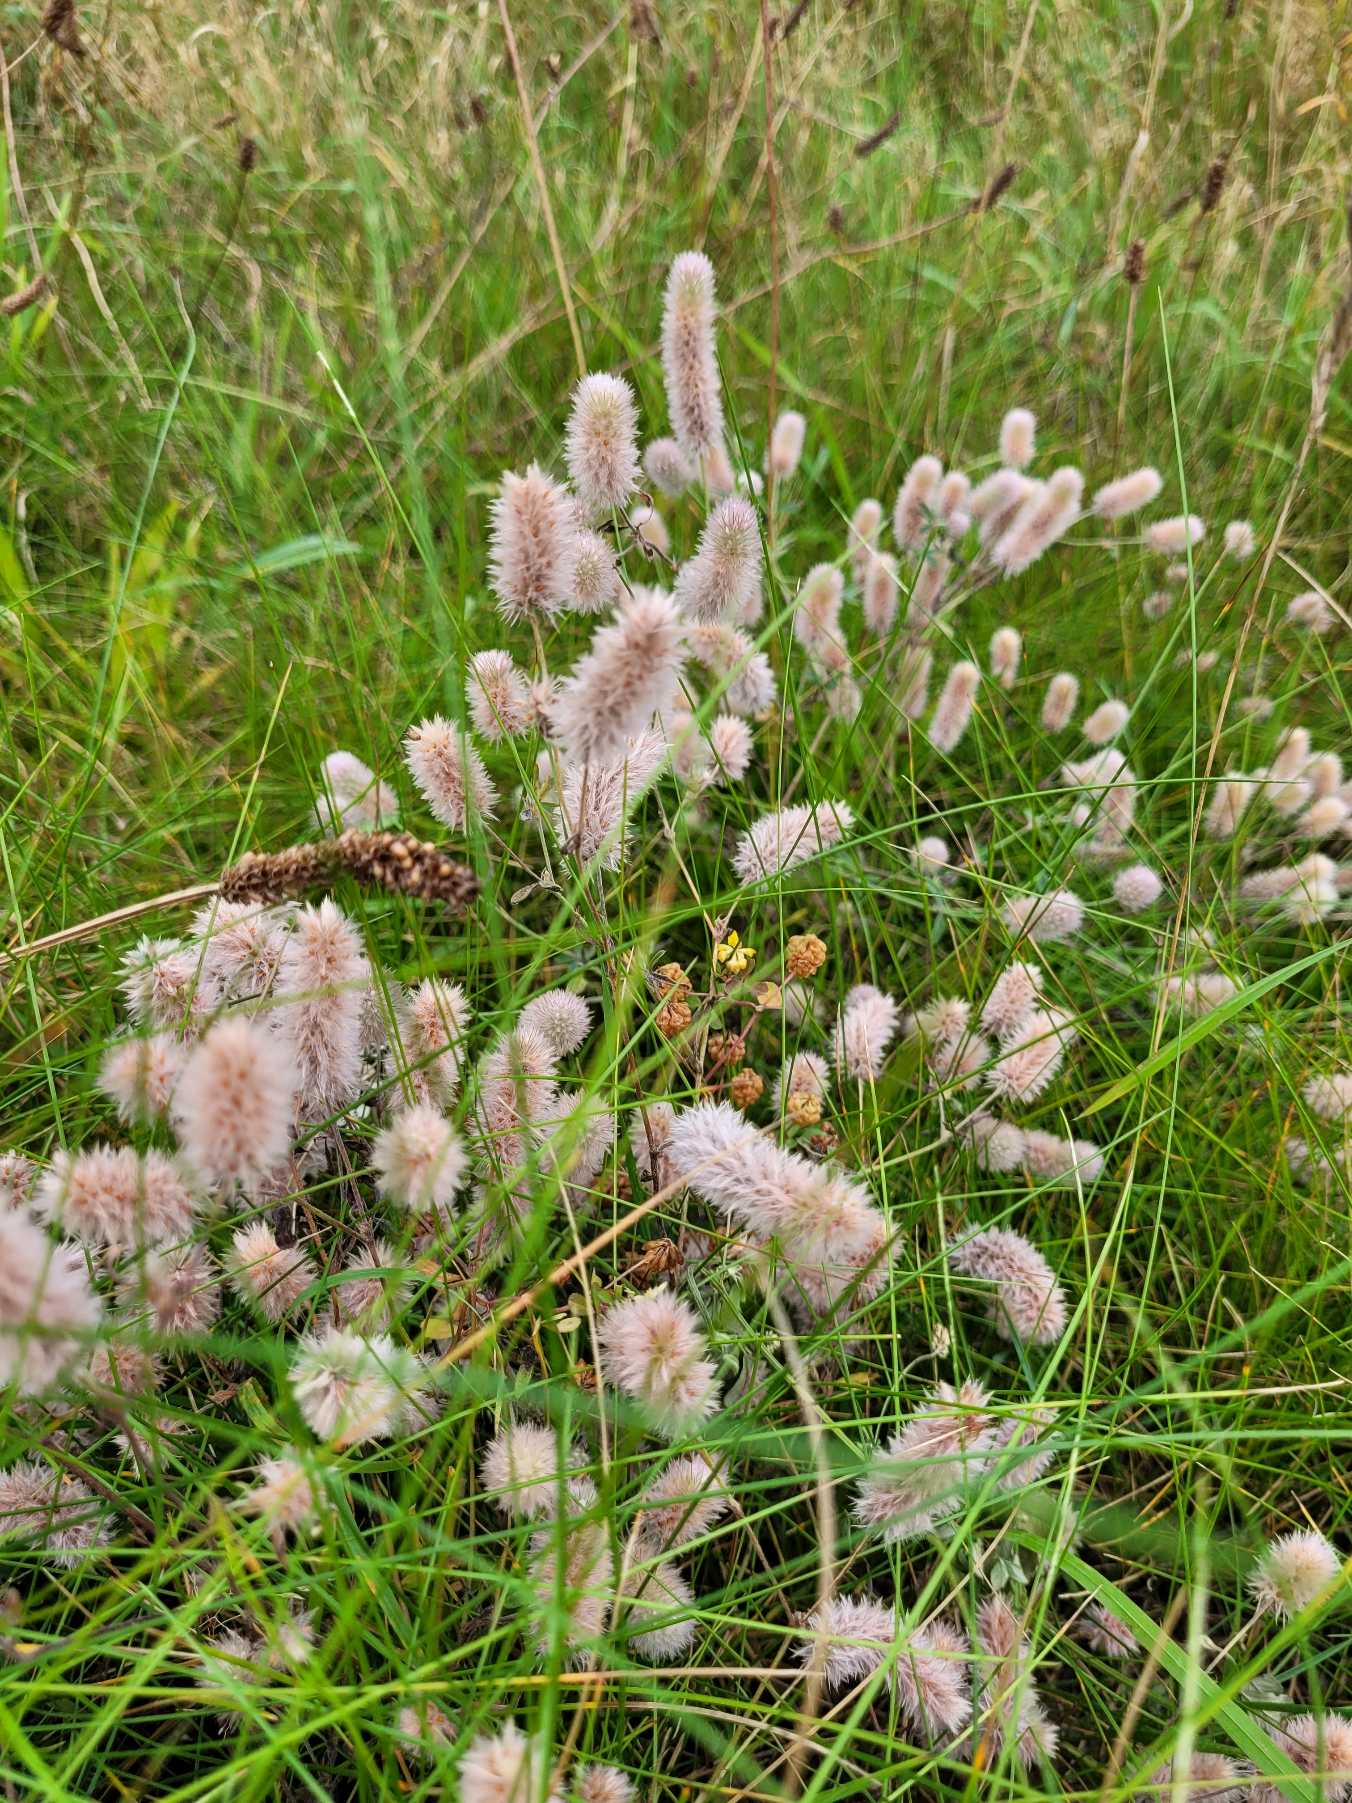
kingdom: Plantae
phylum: Tracheophyta
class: Magnoliopsida
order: Fabales
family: Fabaceae
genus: Trifolium
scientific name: Trifolium arvense
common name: Hare-kløver
